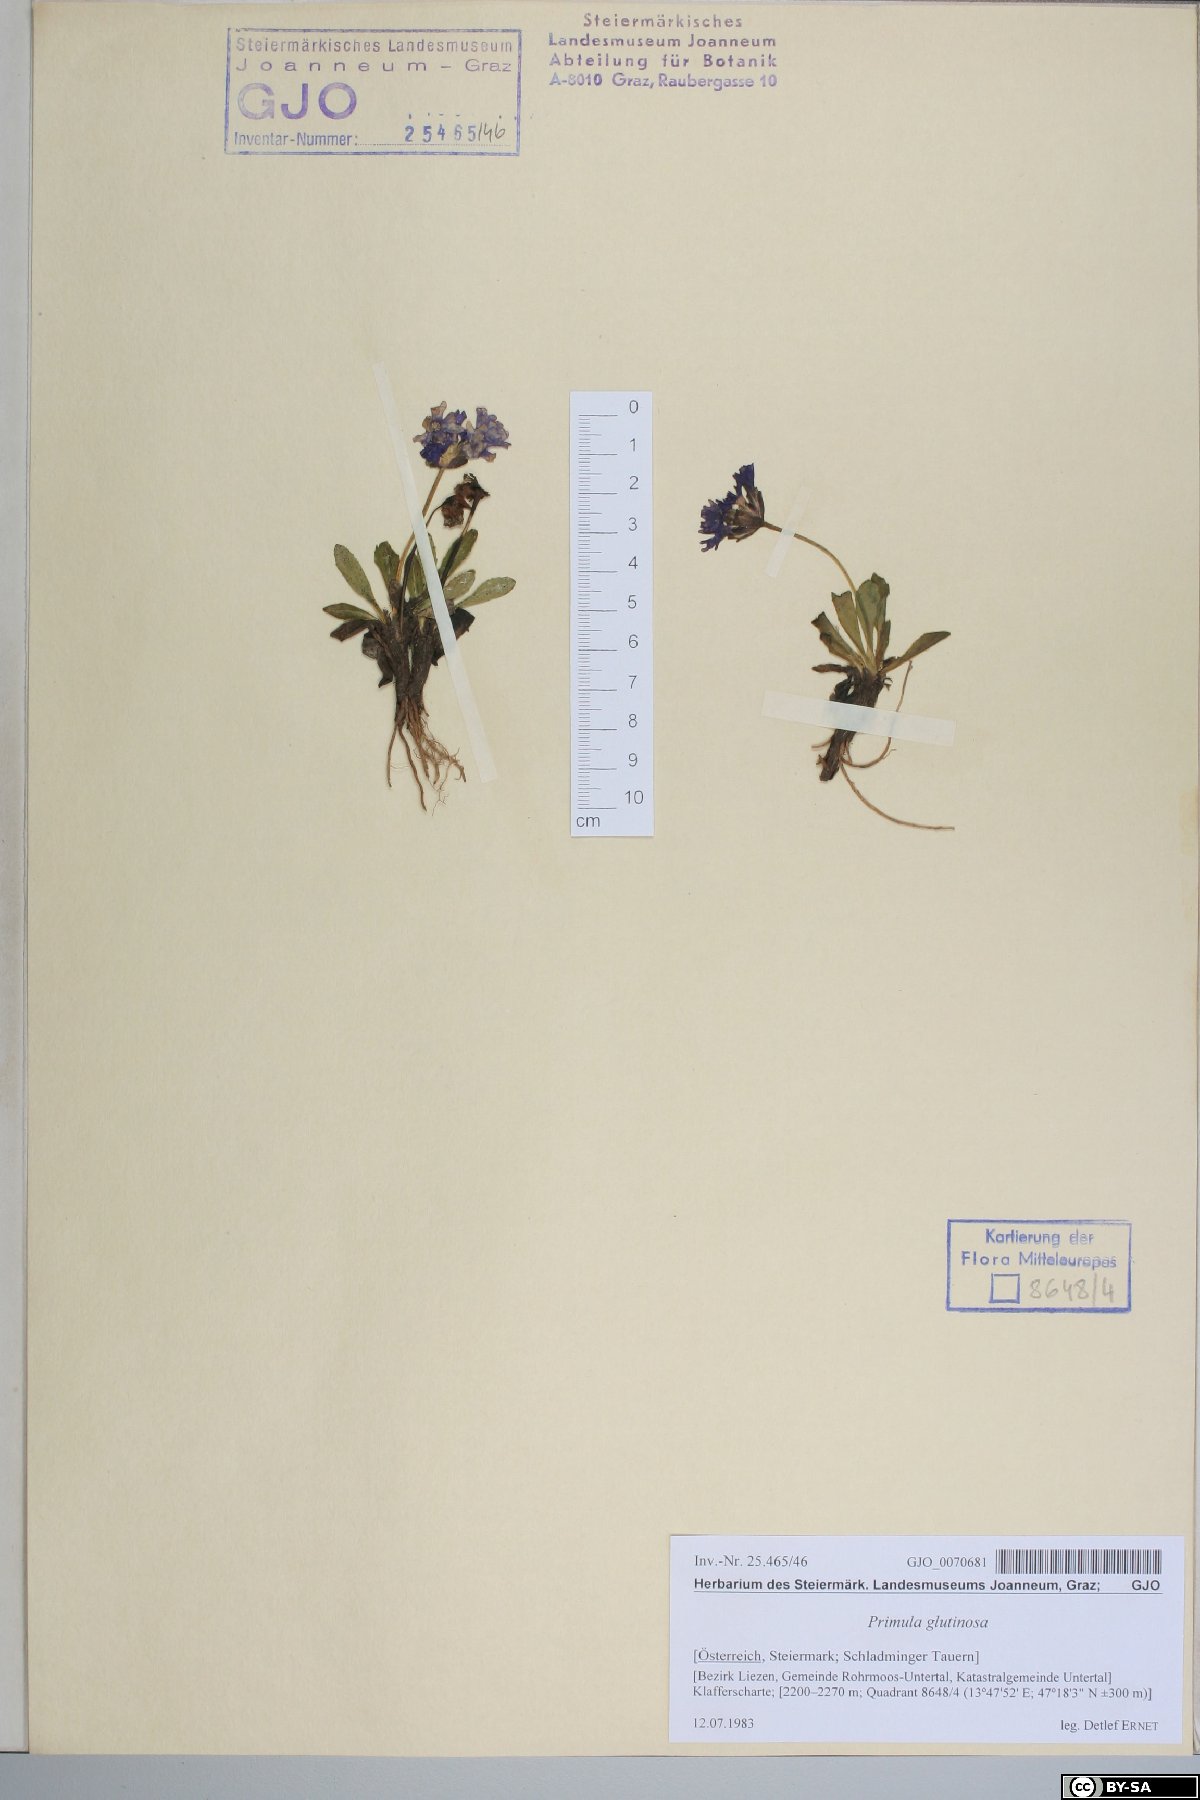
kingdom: Plantae
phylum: Tracheophyta
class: Magnoliopsida
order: Ericales
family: Primulaceae
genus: Primula
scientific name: Primula glutinosa
